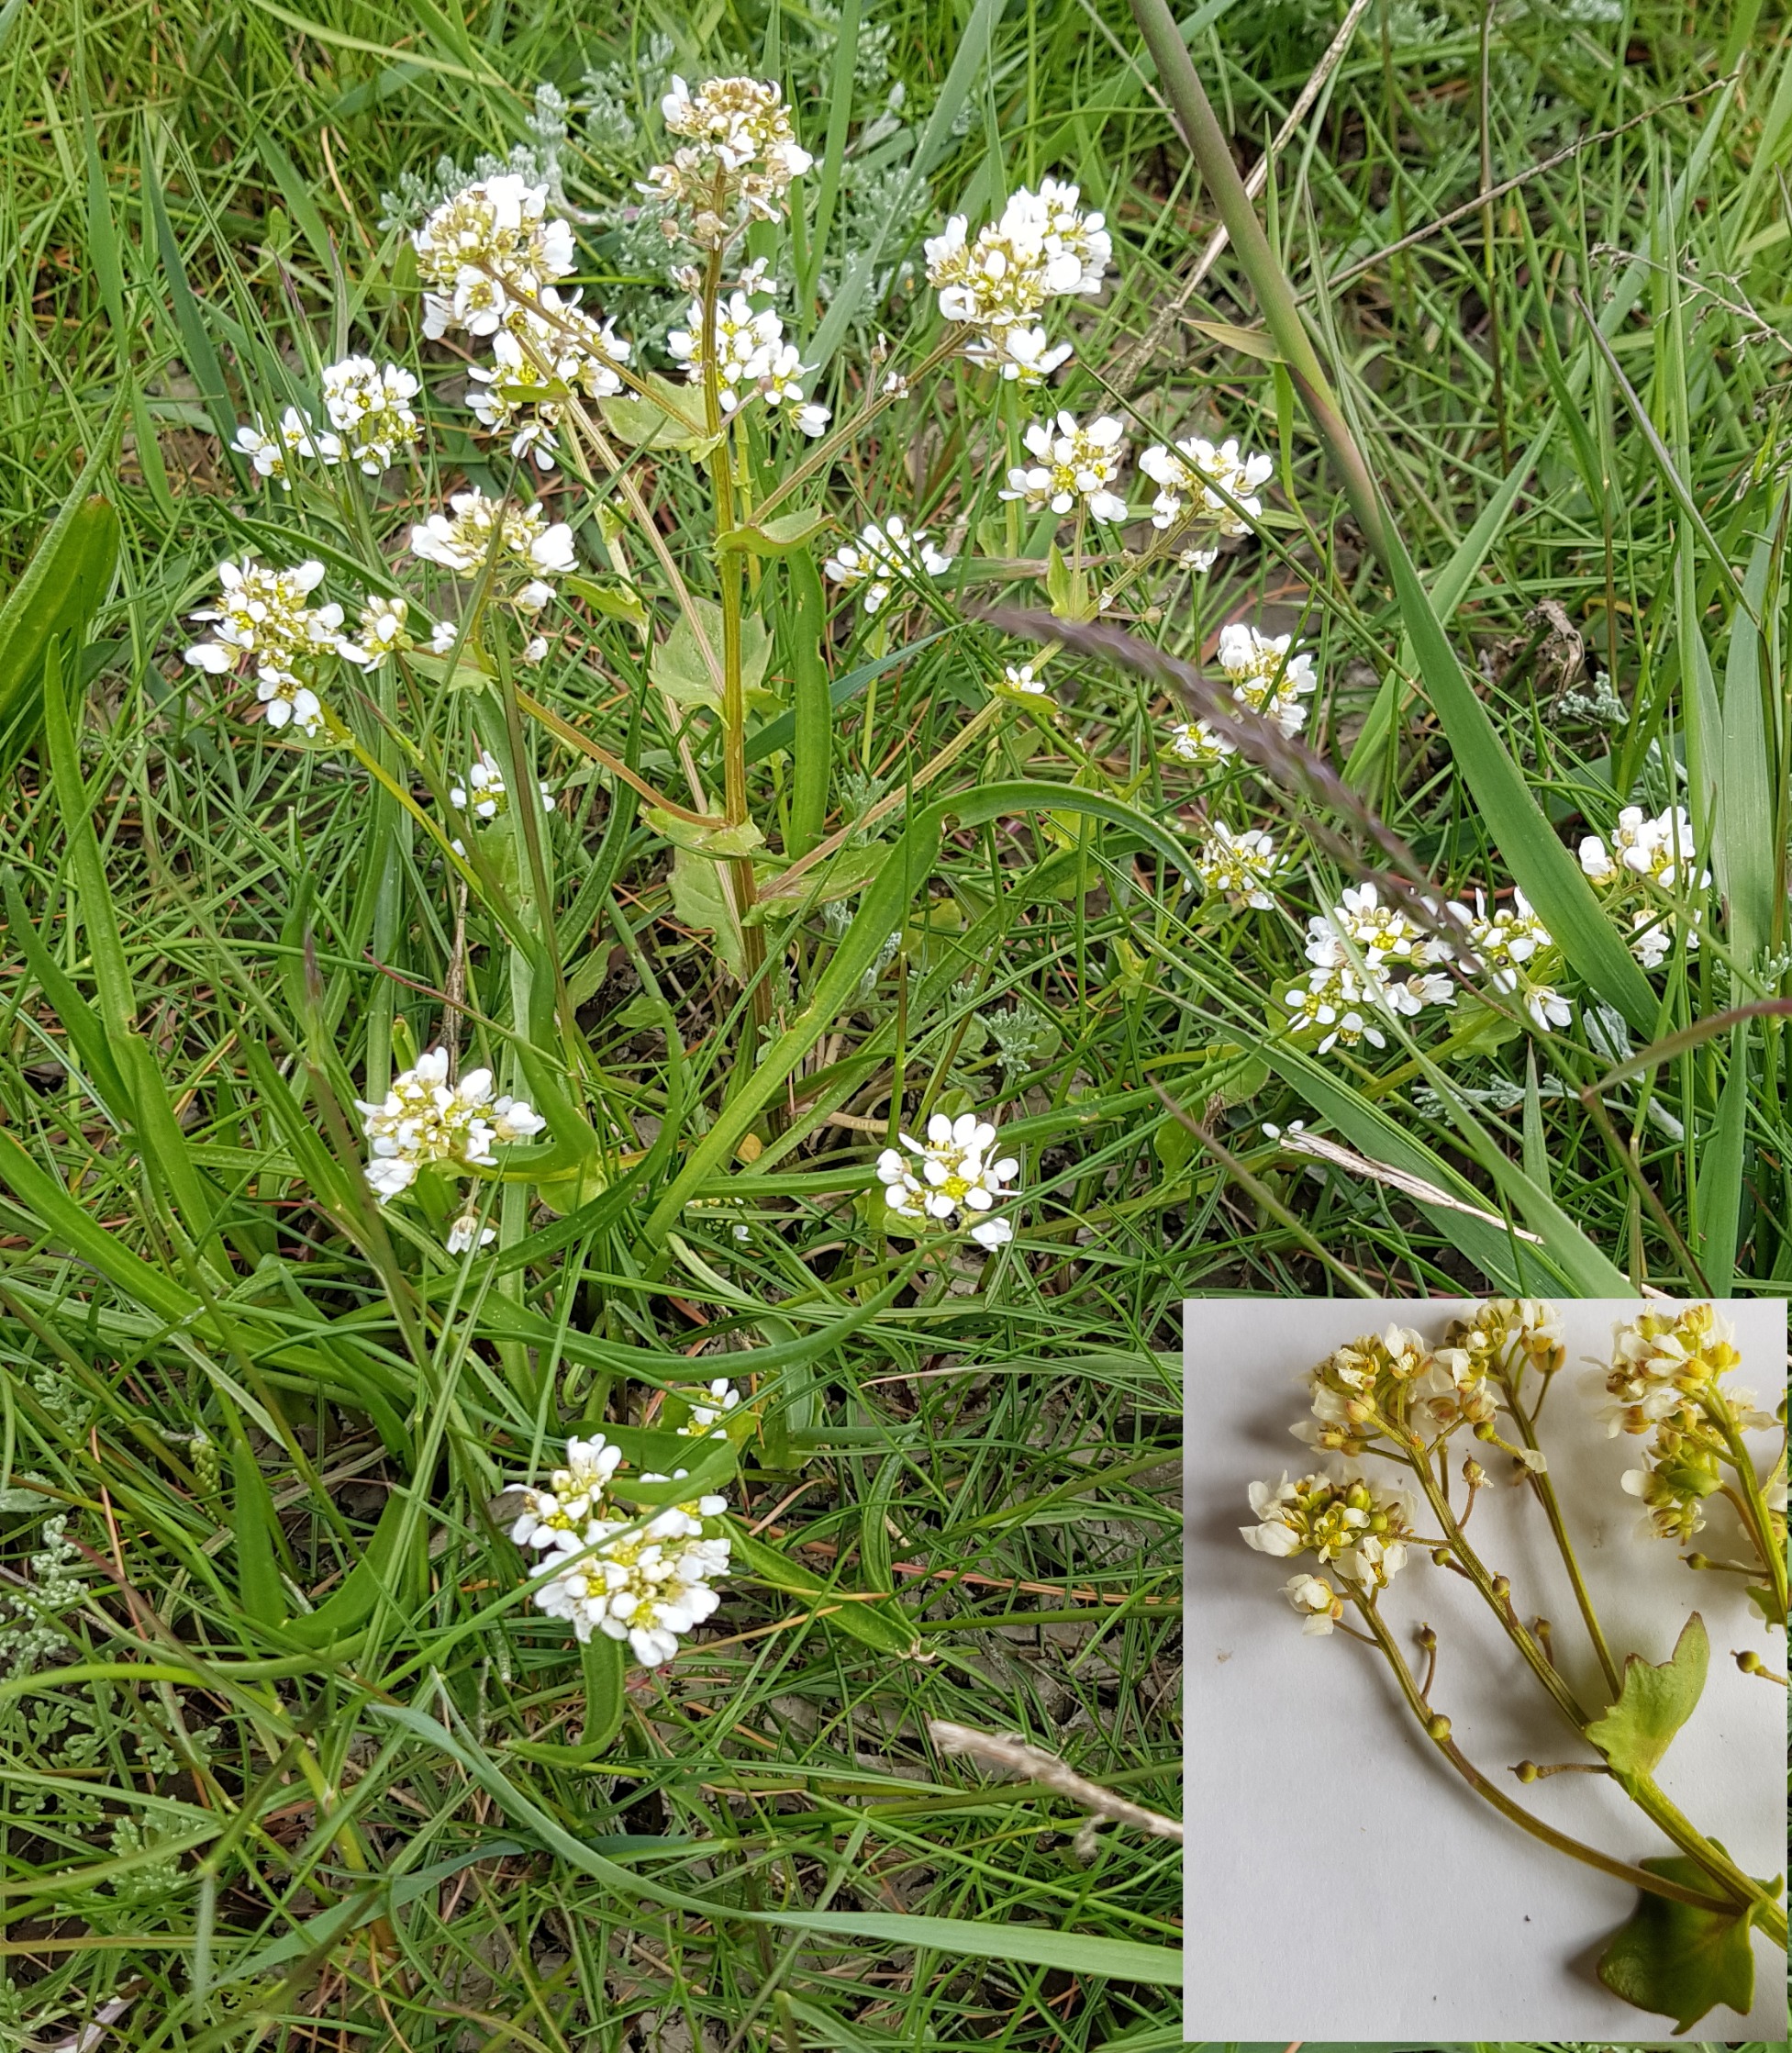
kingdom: Plantae
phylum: Tracheophyta
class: Magnoliopsida
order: Brassicales
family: Brassicaceae
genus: Cochlearia
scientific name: Cochlearia officinalis
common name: Læge-kokleare (underart)
